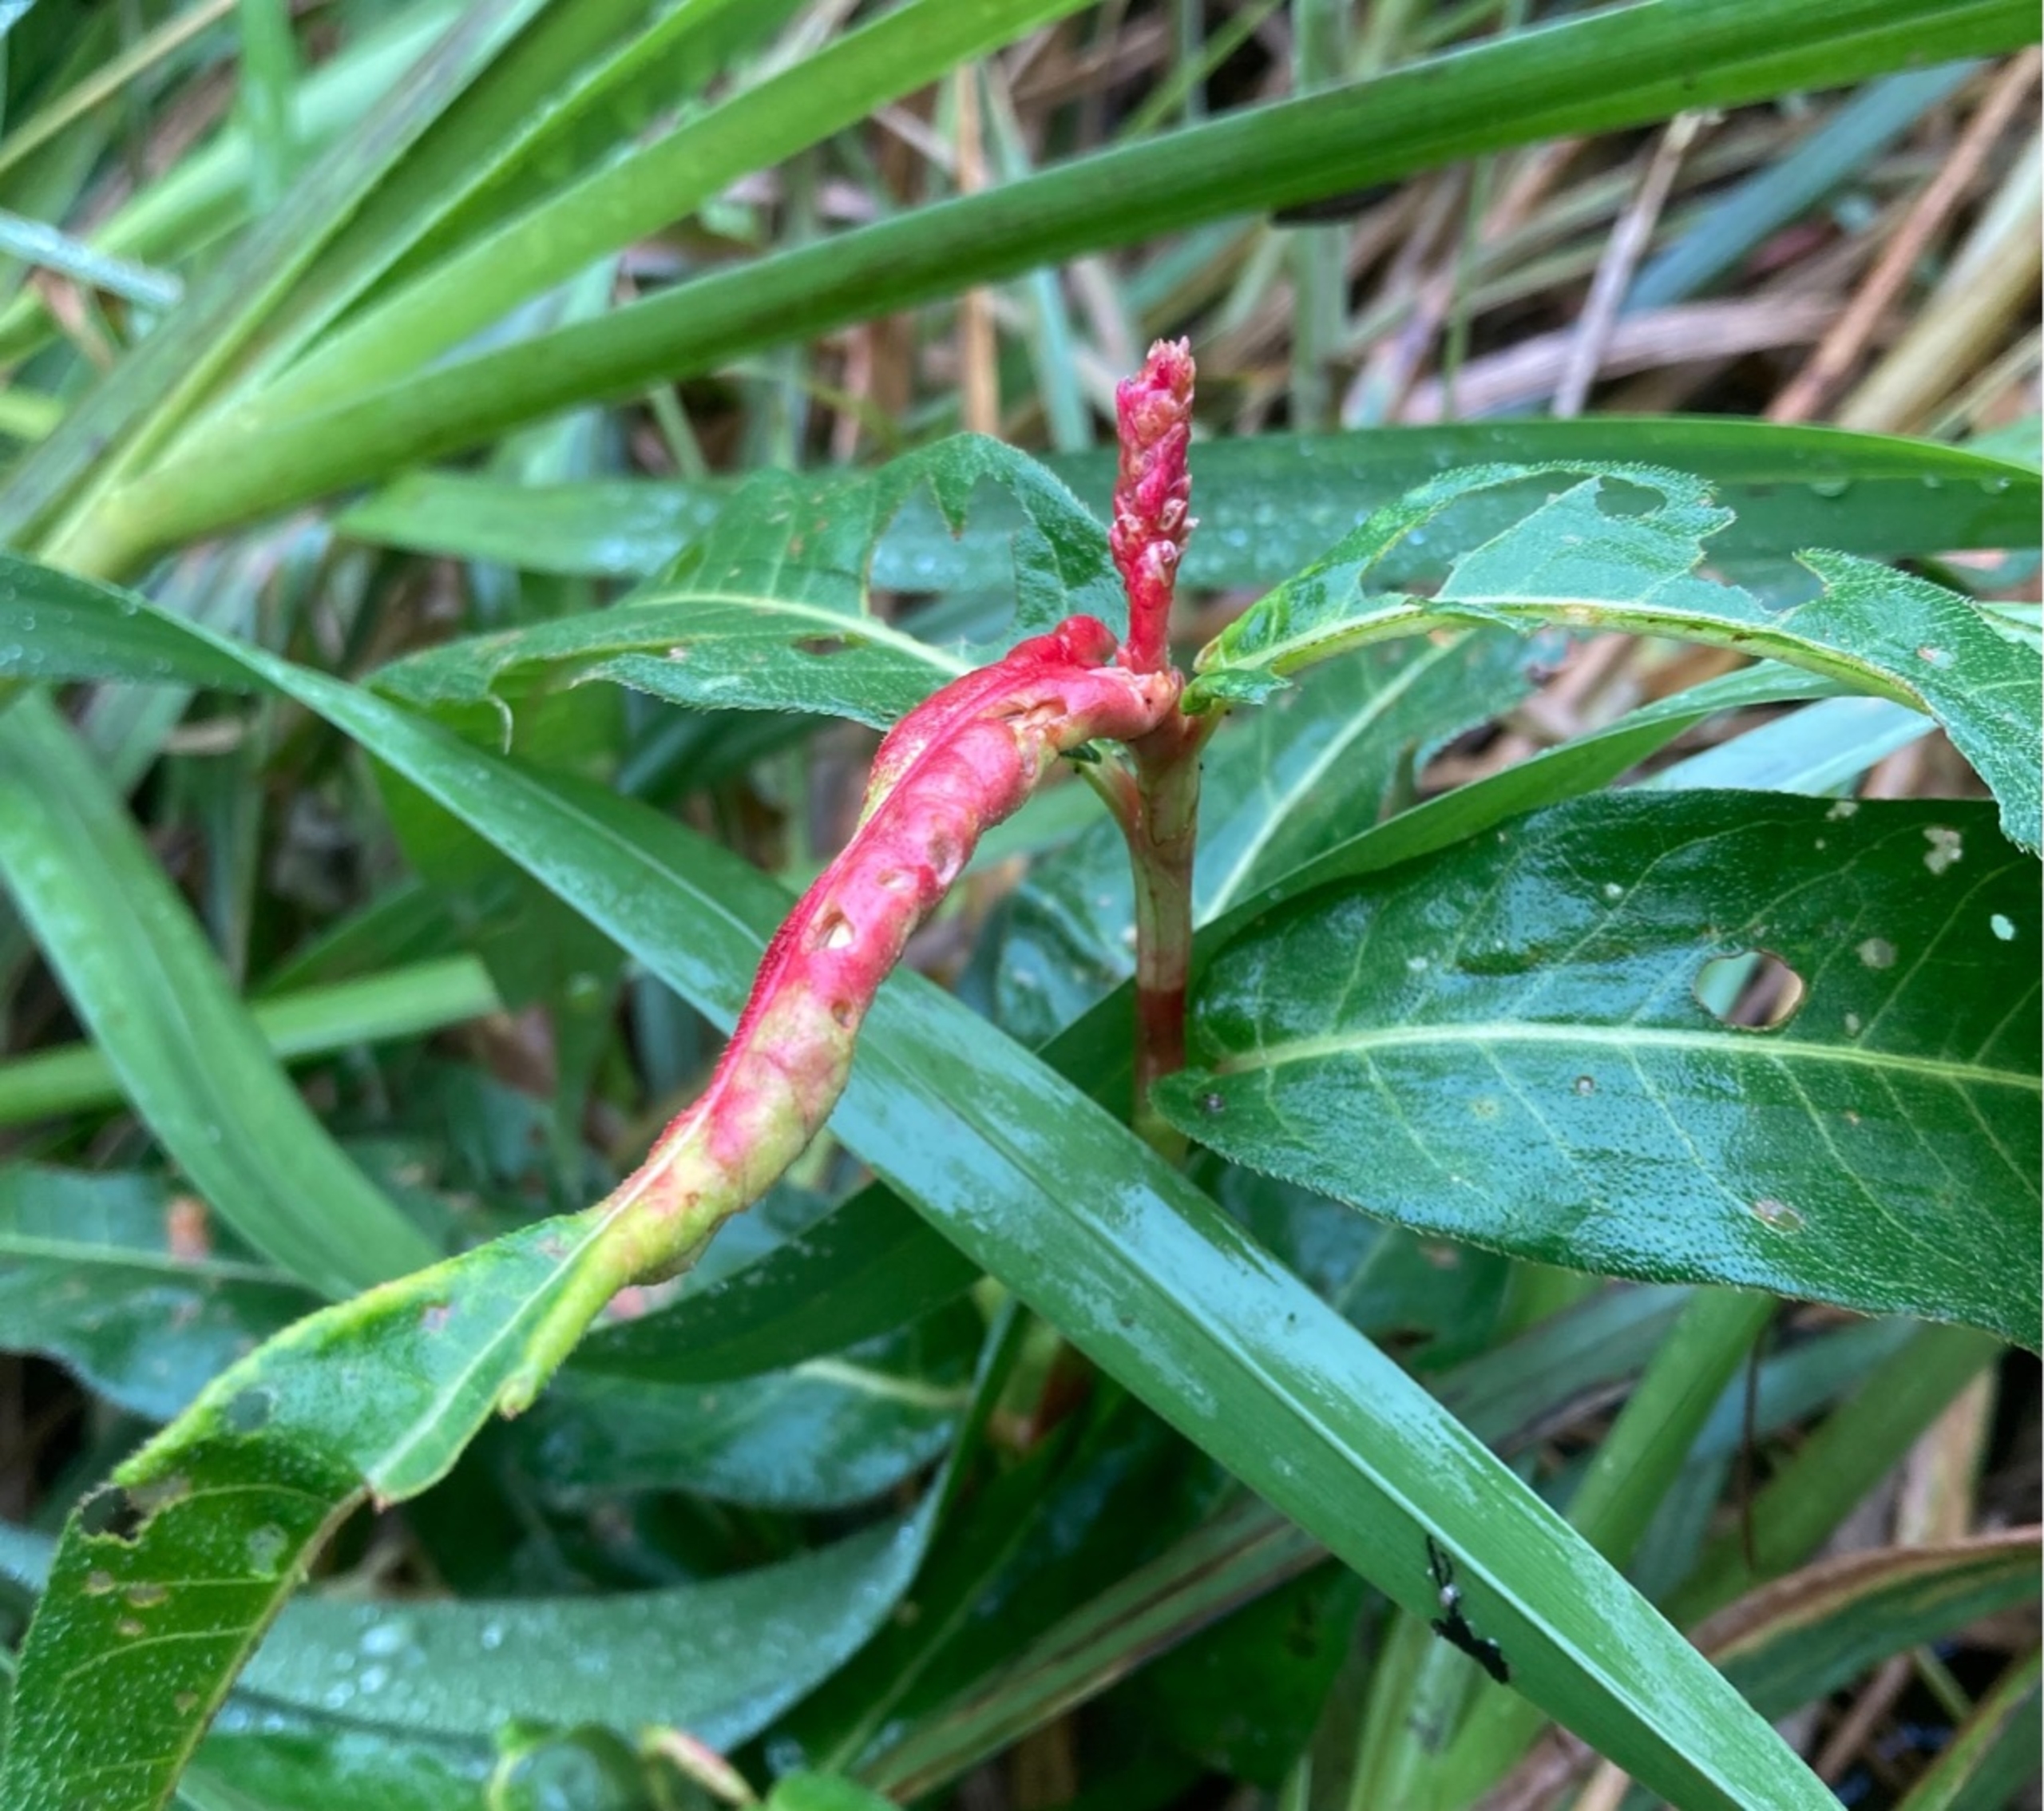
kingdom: Animalia
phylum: Arthropoda
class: Insecta
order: Diptera
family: Cecidomyiidae
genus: Wachtliella
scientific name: Wachtliella persicariae
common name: Pileurtgalmyg
